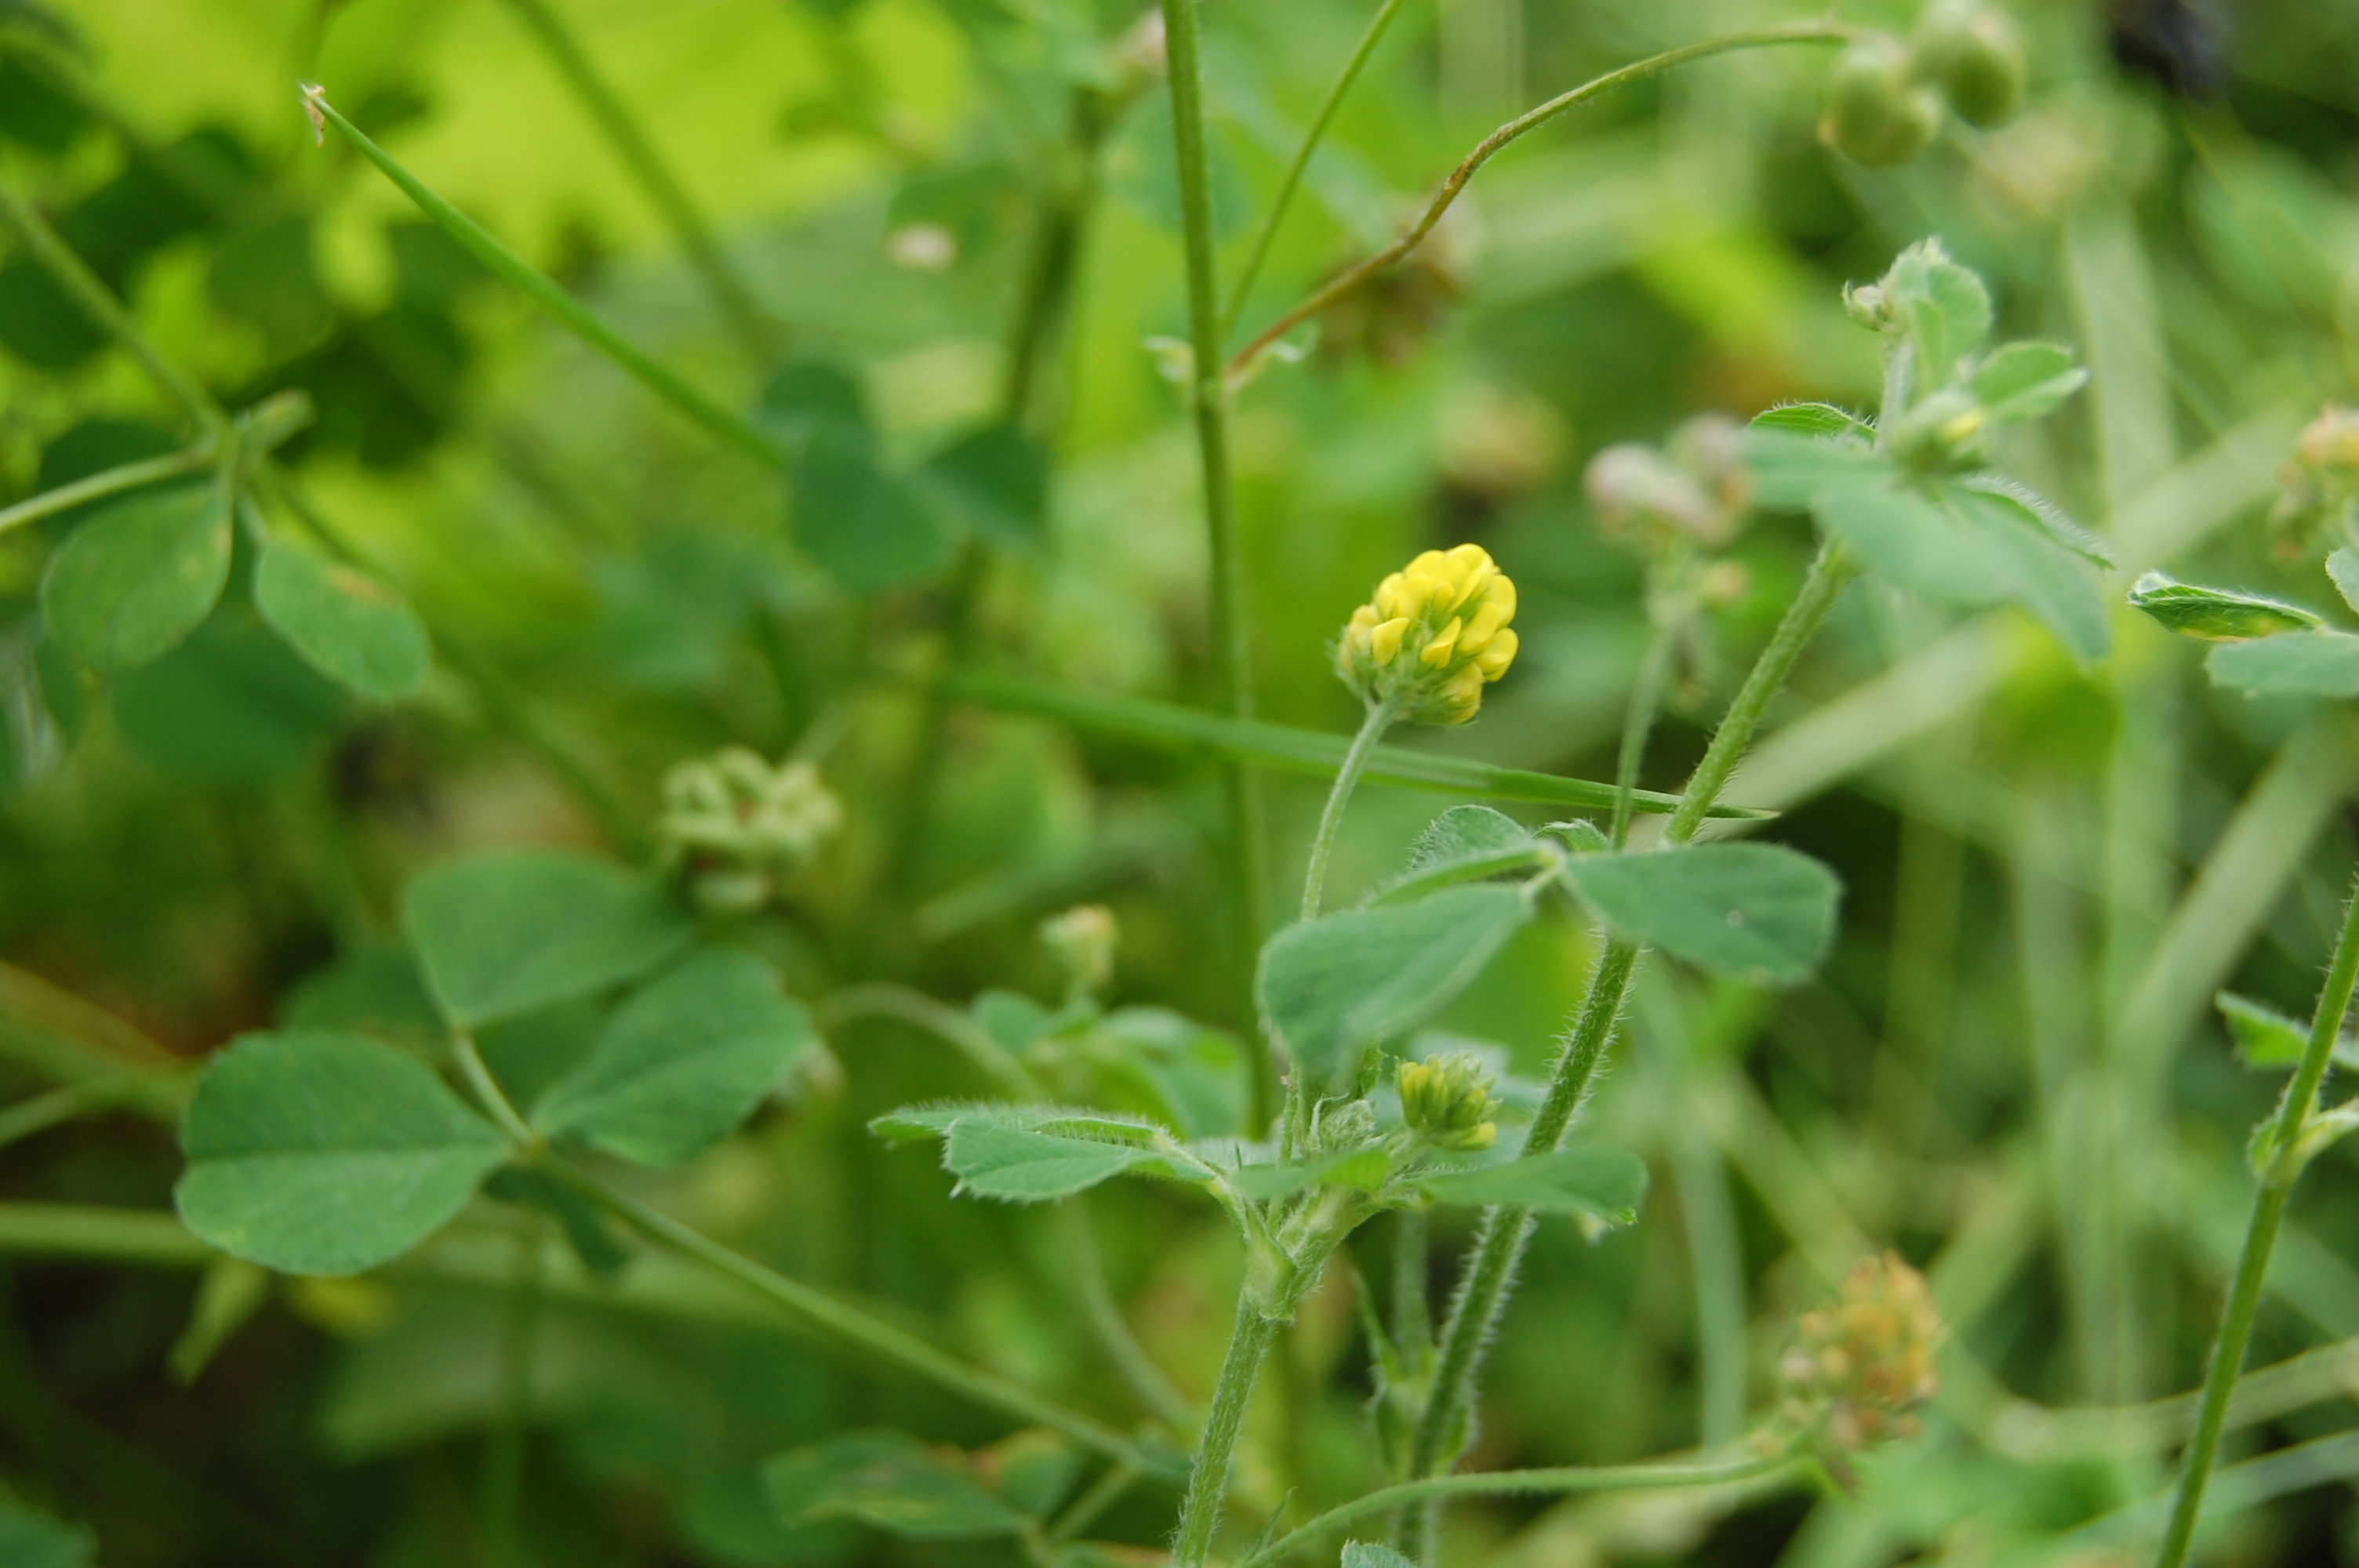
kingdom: Plantae
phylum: Tracheophyta
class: Magnoliopsida
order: Fabales
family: Fabaceae
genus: Trifolium
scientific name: Trifolium campestre
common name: Field clover
